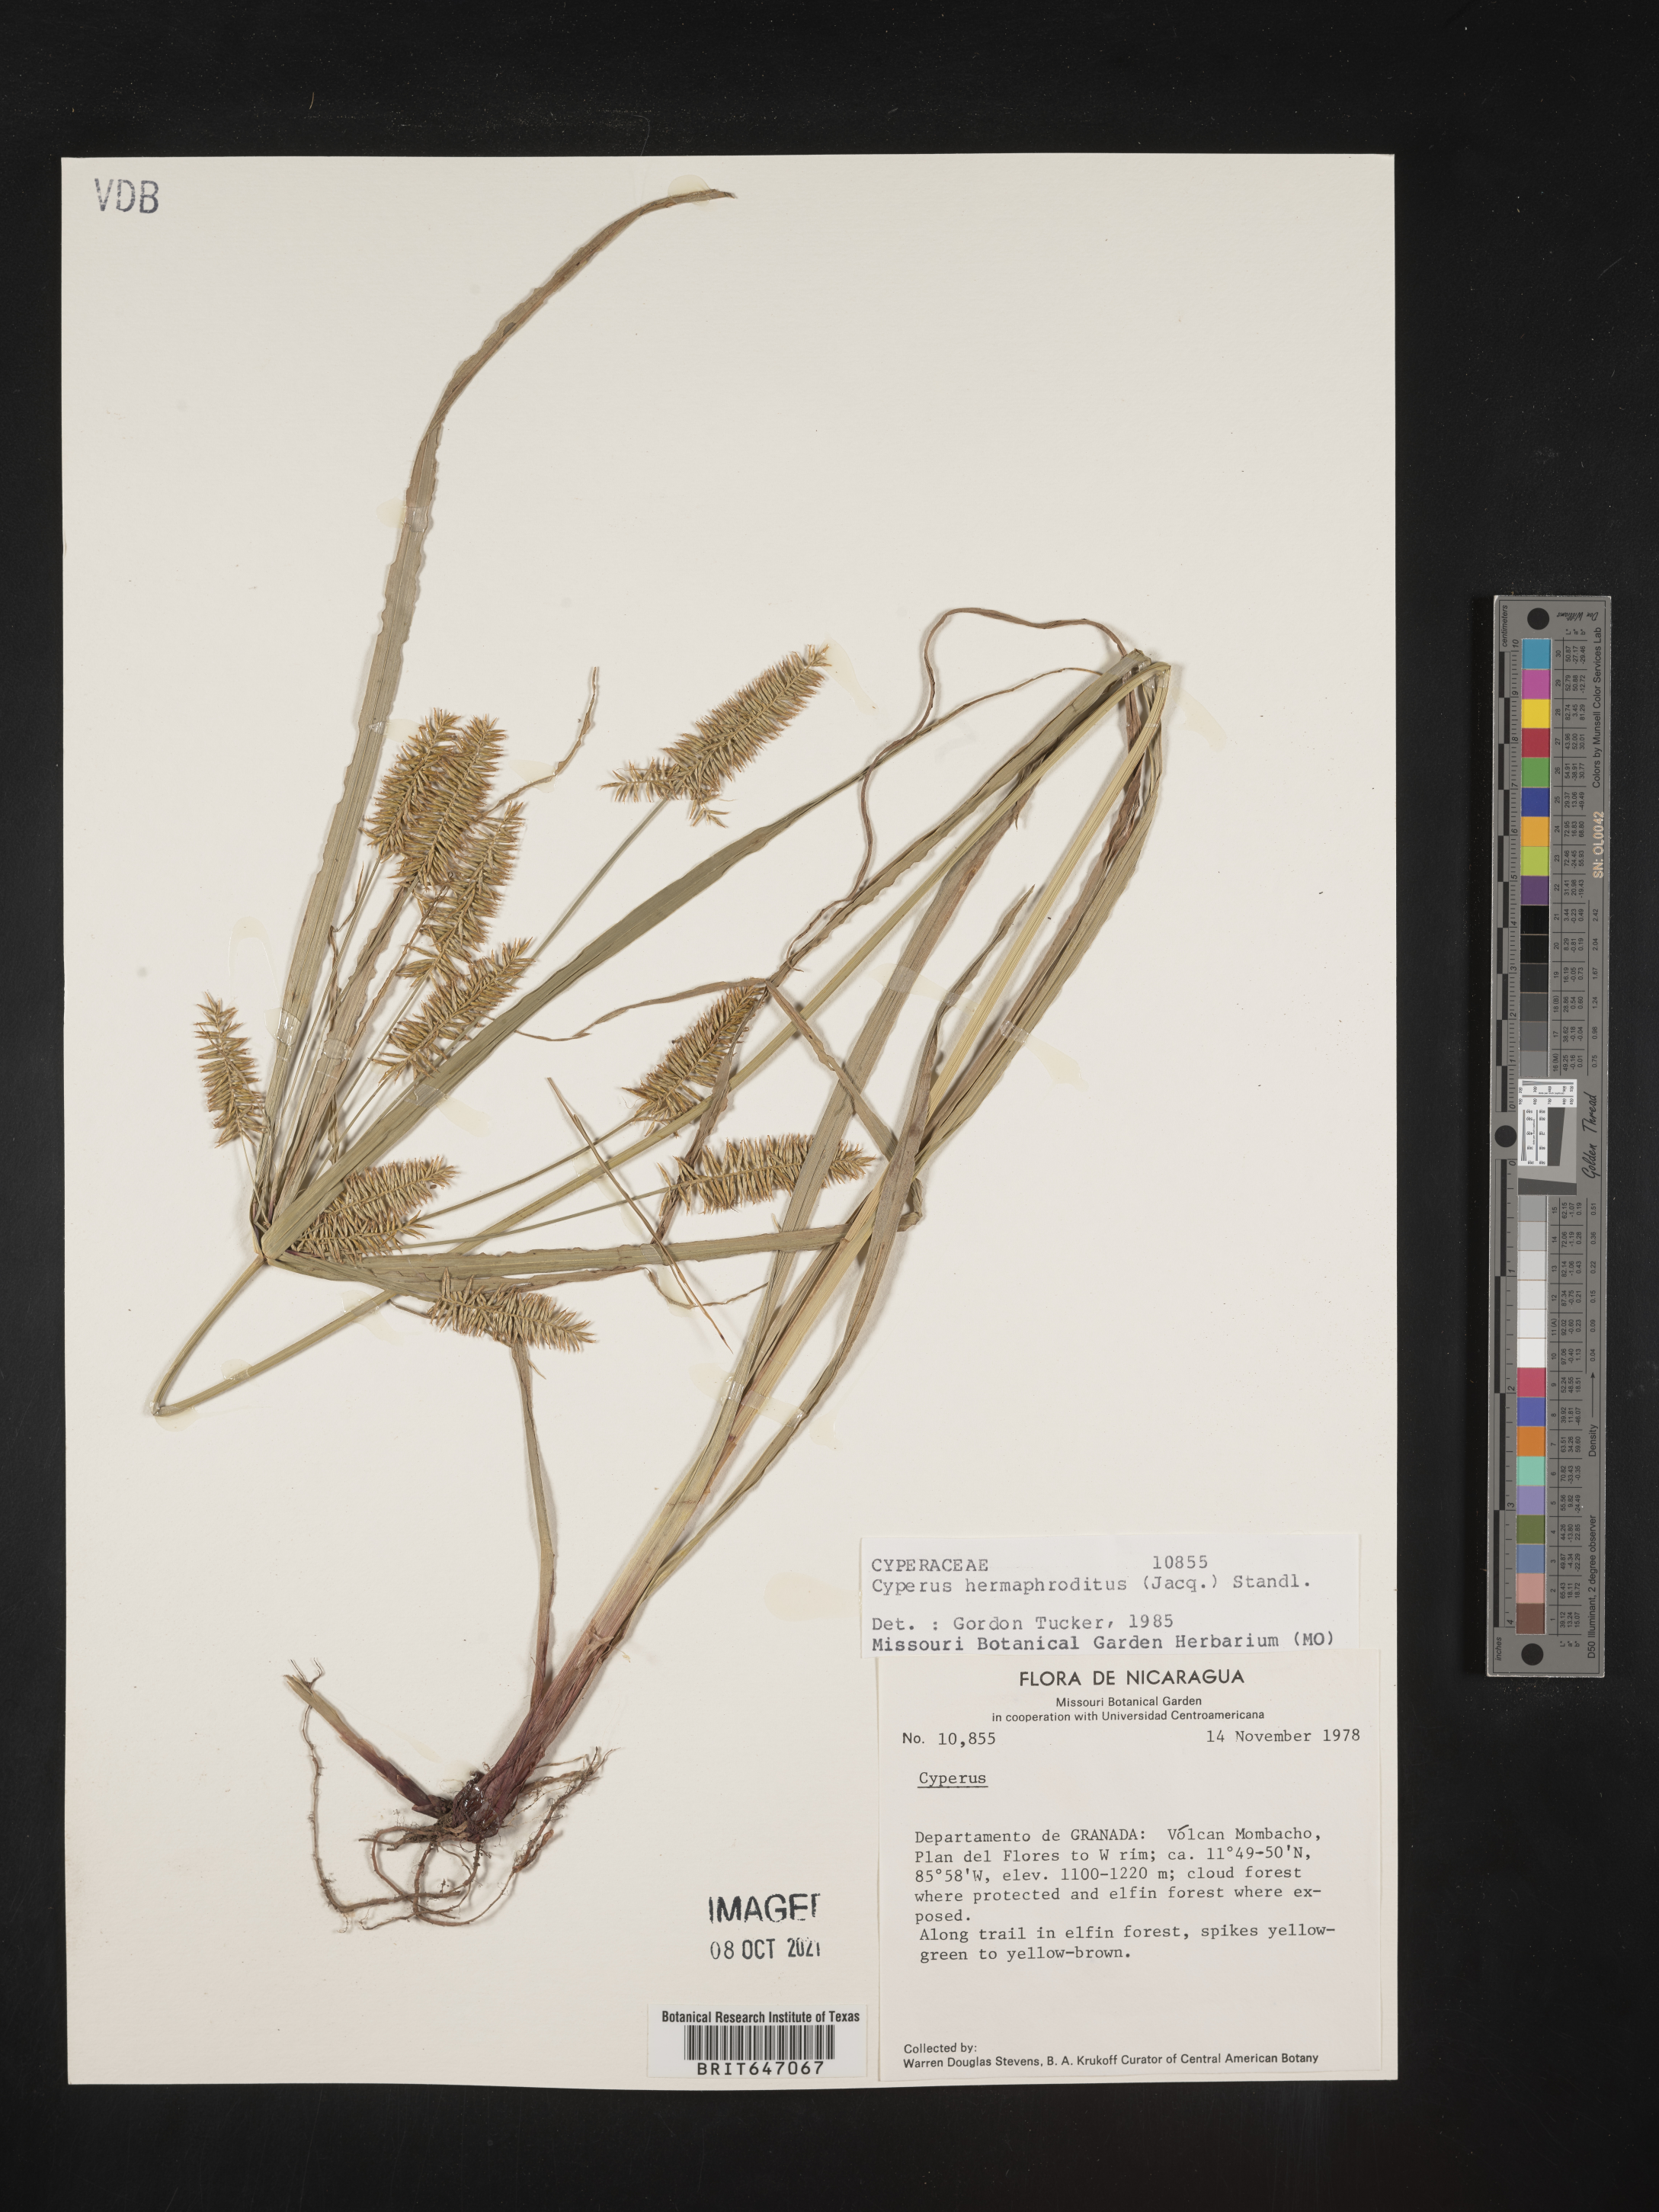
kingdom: Plantae
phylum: Tracheophyta
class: Liliopsida
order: Poales
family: Cyperaceae
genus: Cyperus
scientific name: Cyperus hermaphroditus
